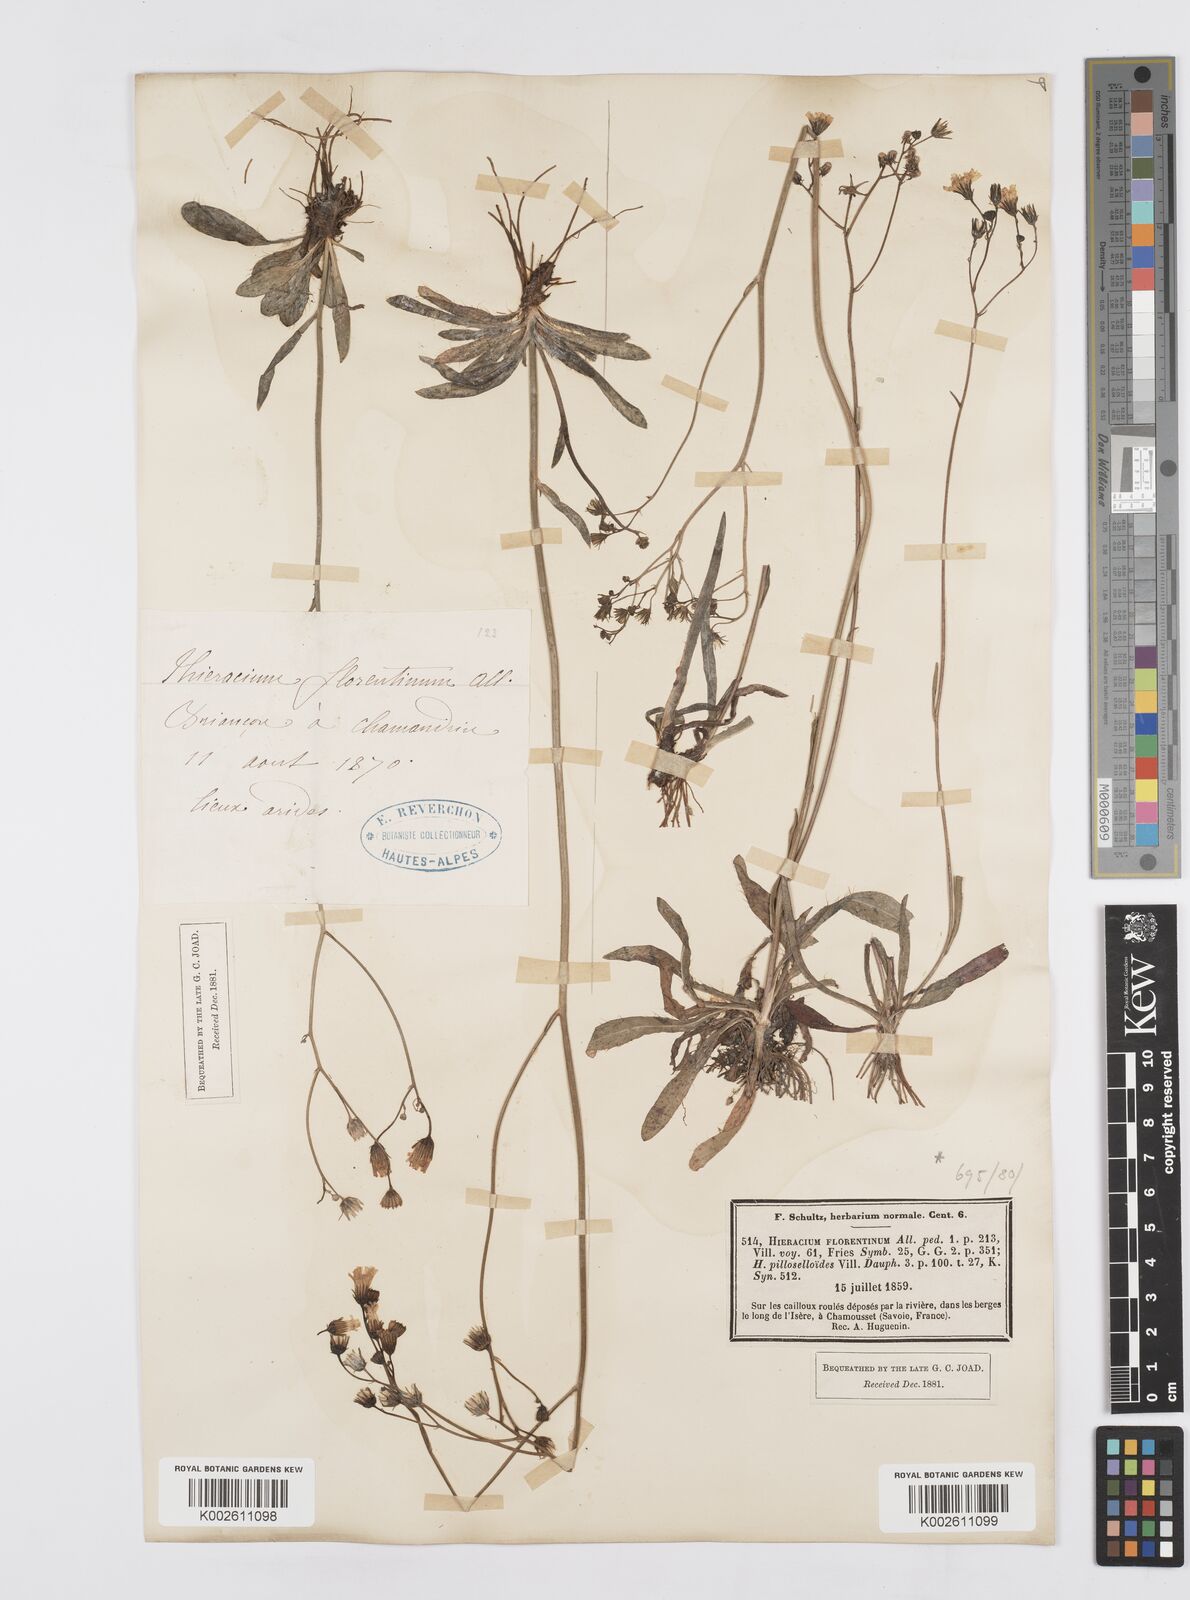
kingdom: Plantae
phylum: Tracheophyta
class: Magnoliopsida
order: Asterales
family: Asteraceae
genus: Pilosella
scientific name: Pilosella piloselloides
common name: Glaucous king-devil
